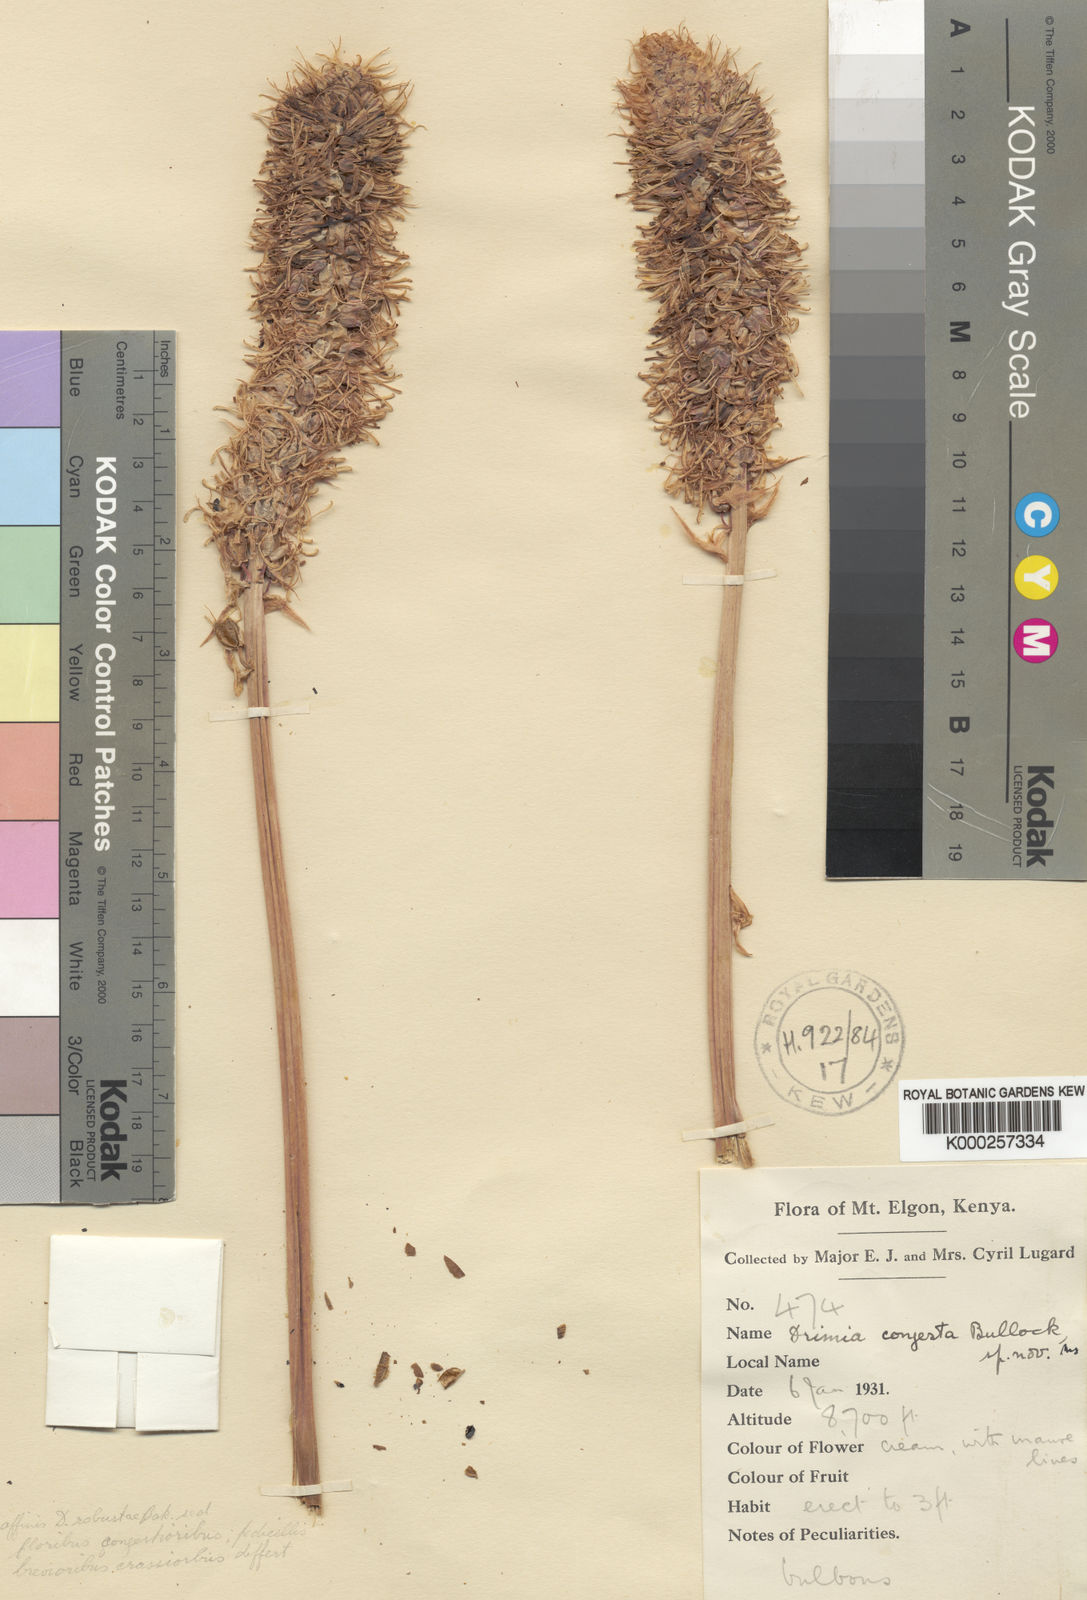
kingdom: Plantae
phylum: Tracheophyta
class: Liliopsida
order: Asparagales
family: Asparagaceae
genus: Drimia
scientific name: Drimia congesta
